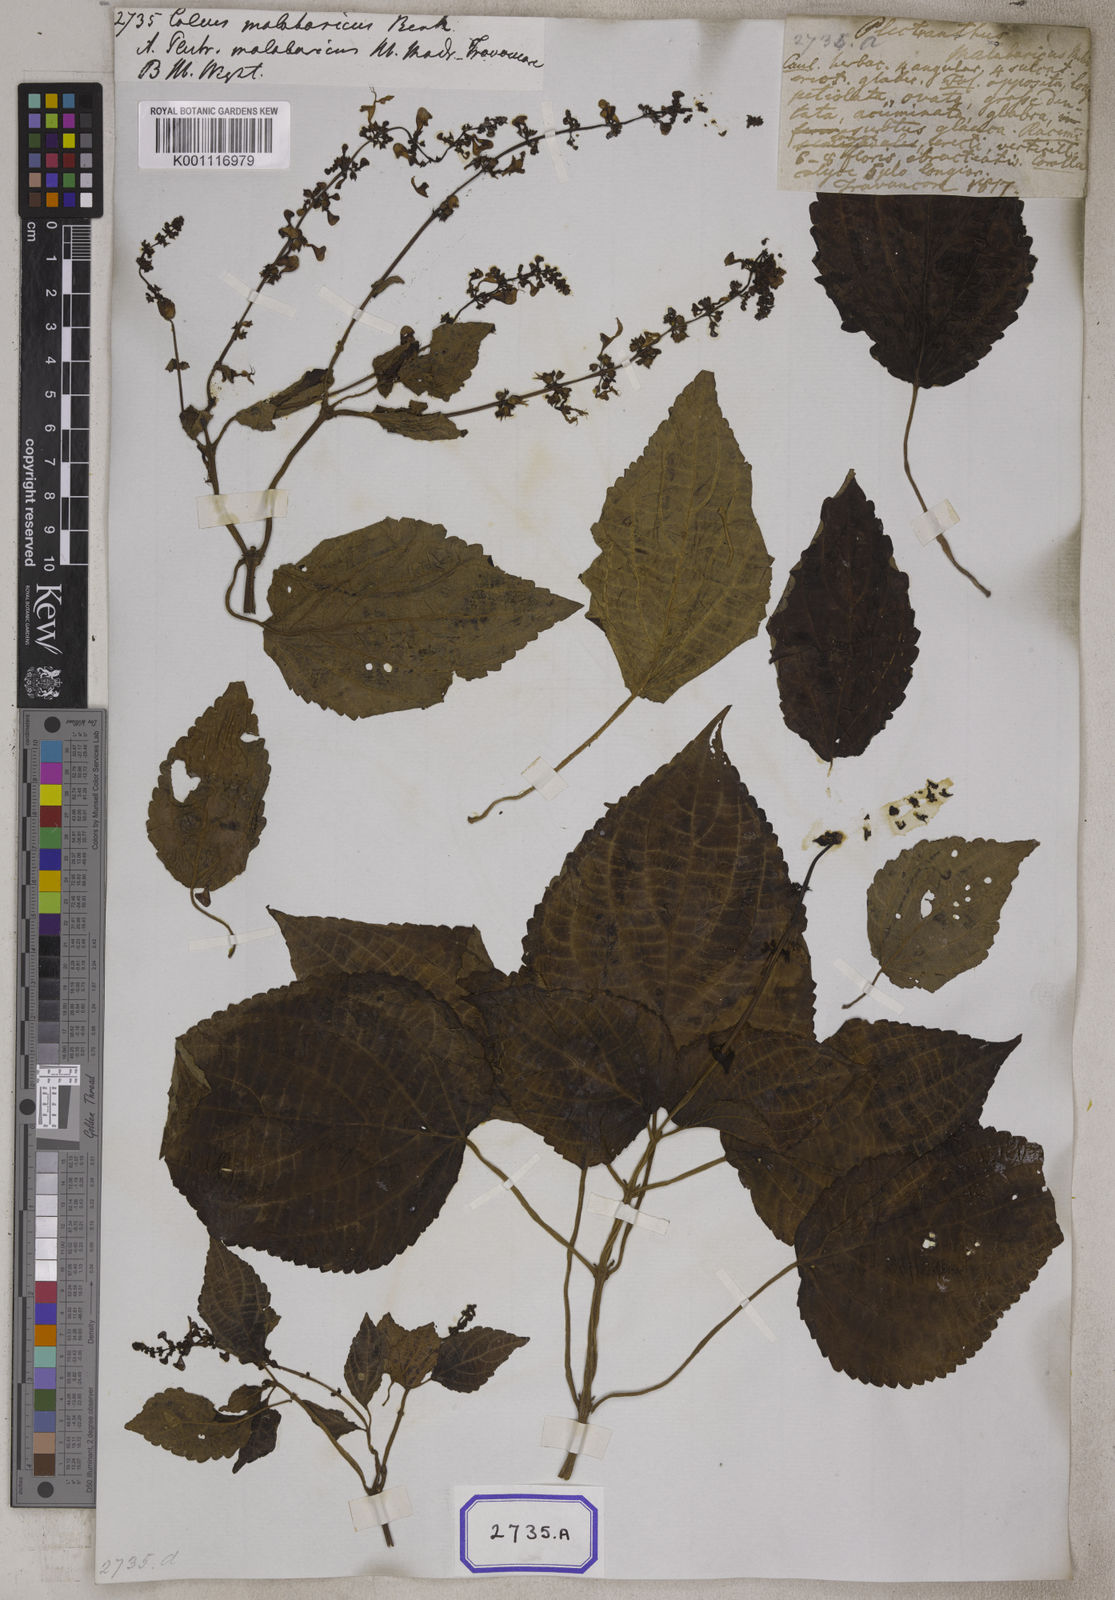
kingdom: Plantae
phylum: Tracheophyta
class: Magnoliopsida
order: Lamiales
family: Lamiaceae
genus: Coleus
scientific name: Coleus malabaricus
